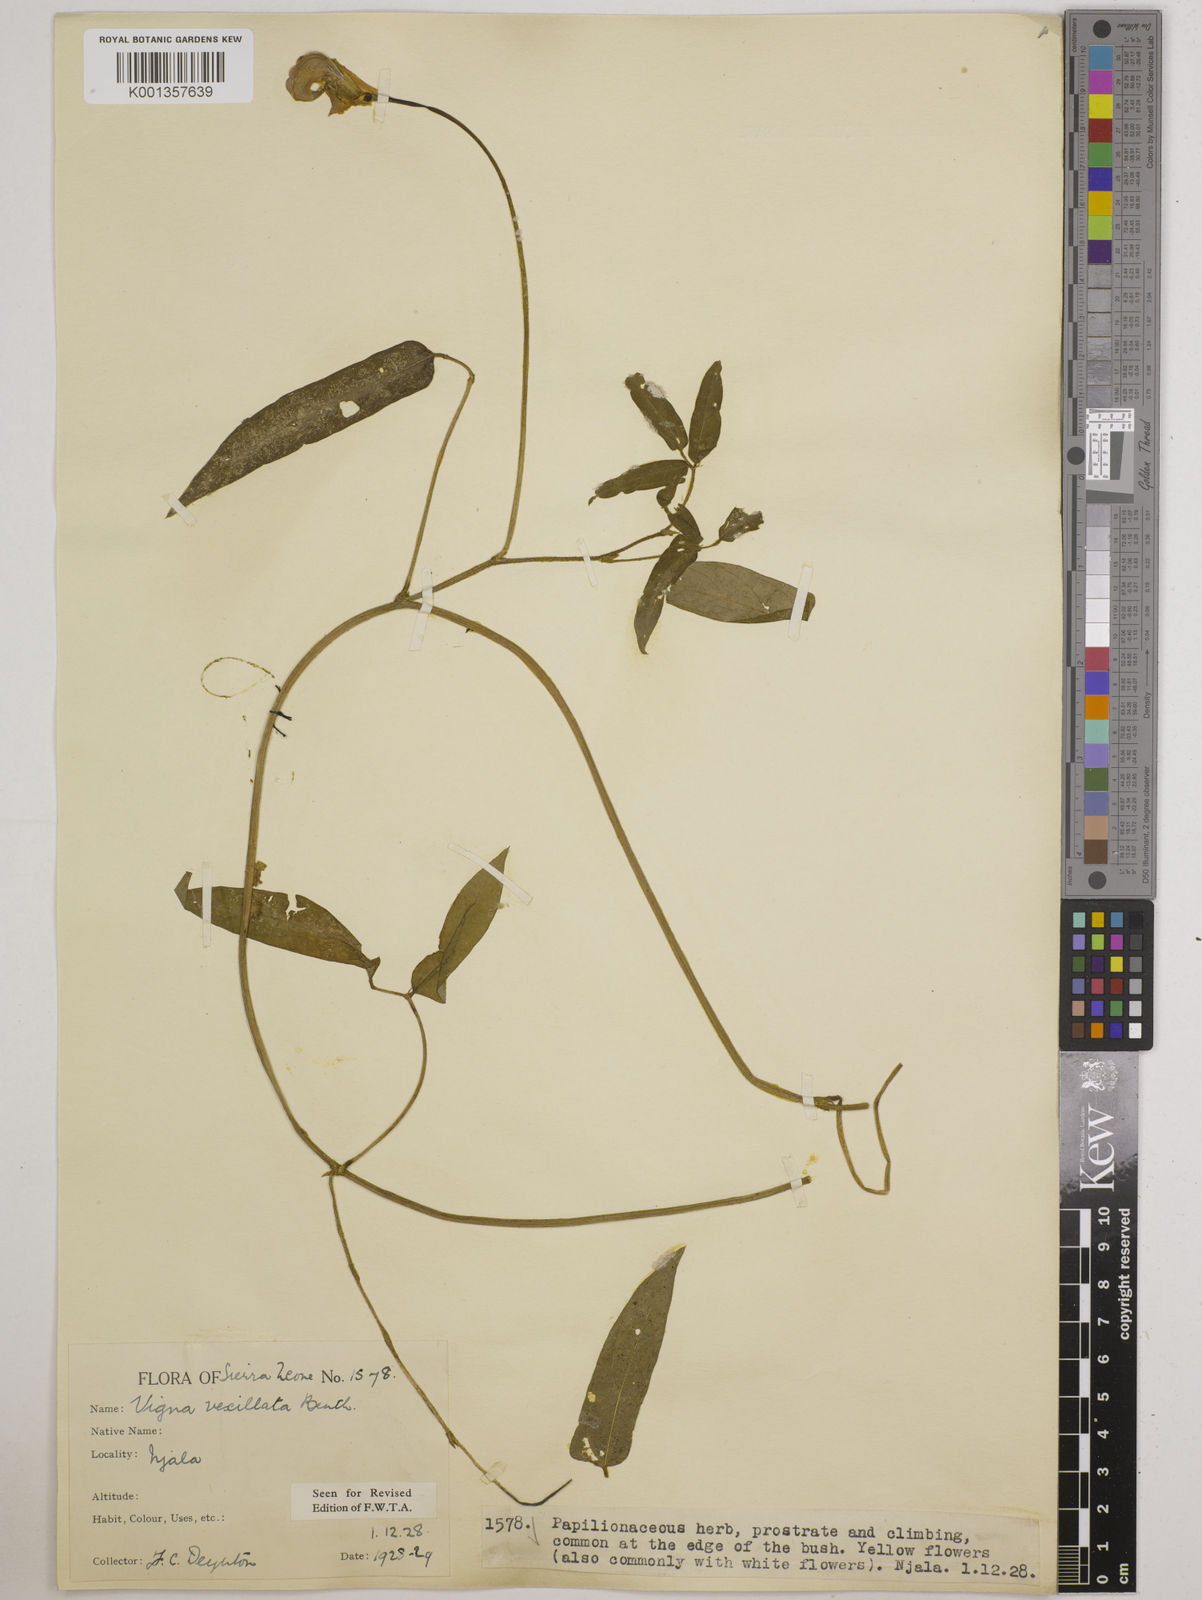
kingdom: Plantae
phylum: Tracheophyta
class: Magnoliopsida
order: Fabales
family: Fabaceae
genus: Vigna
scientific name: Vigna vexillata
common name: Zombi pea
